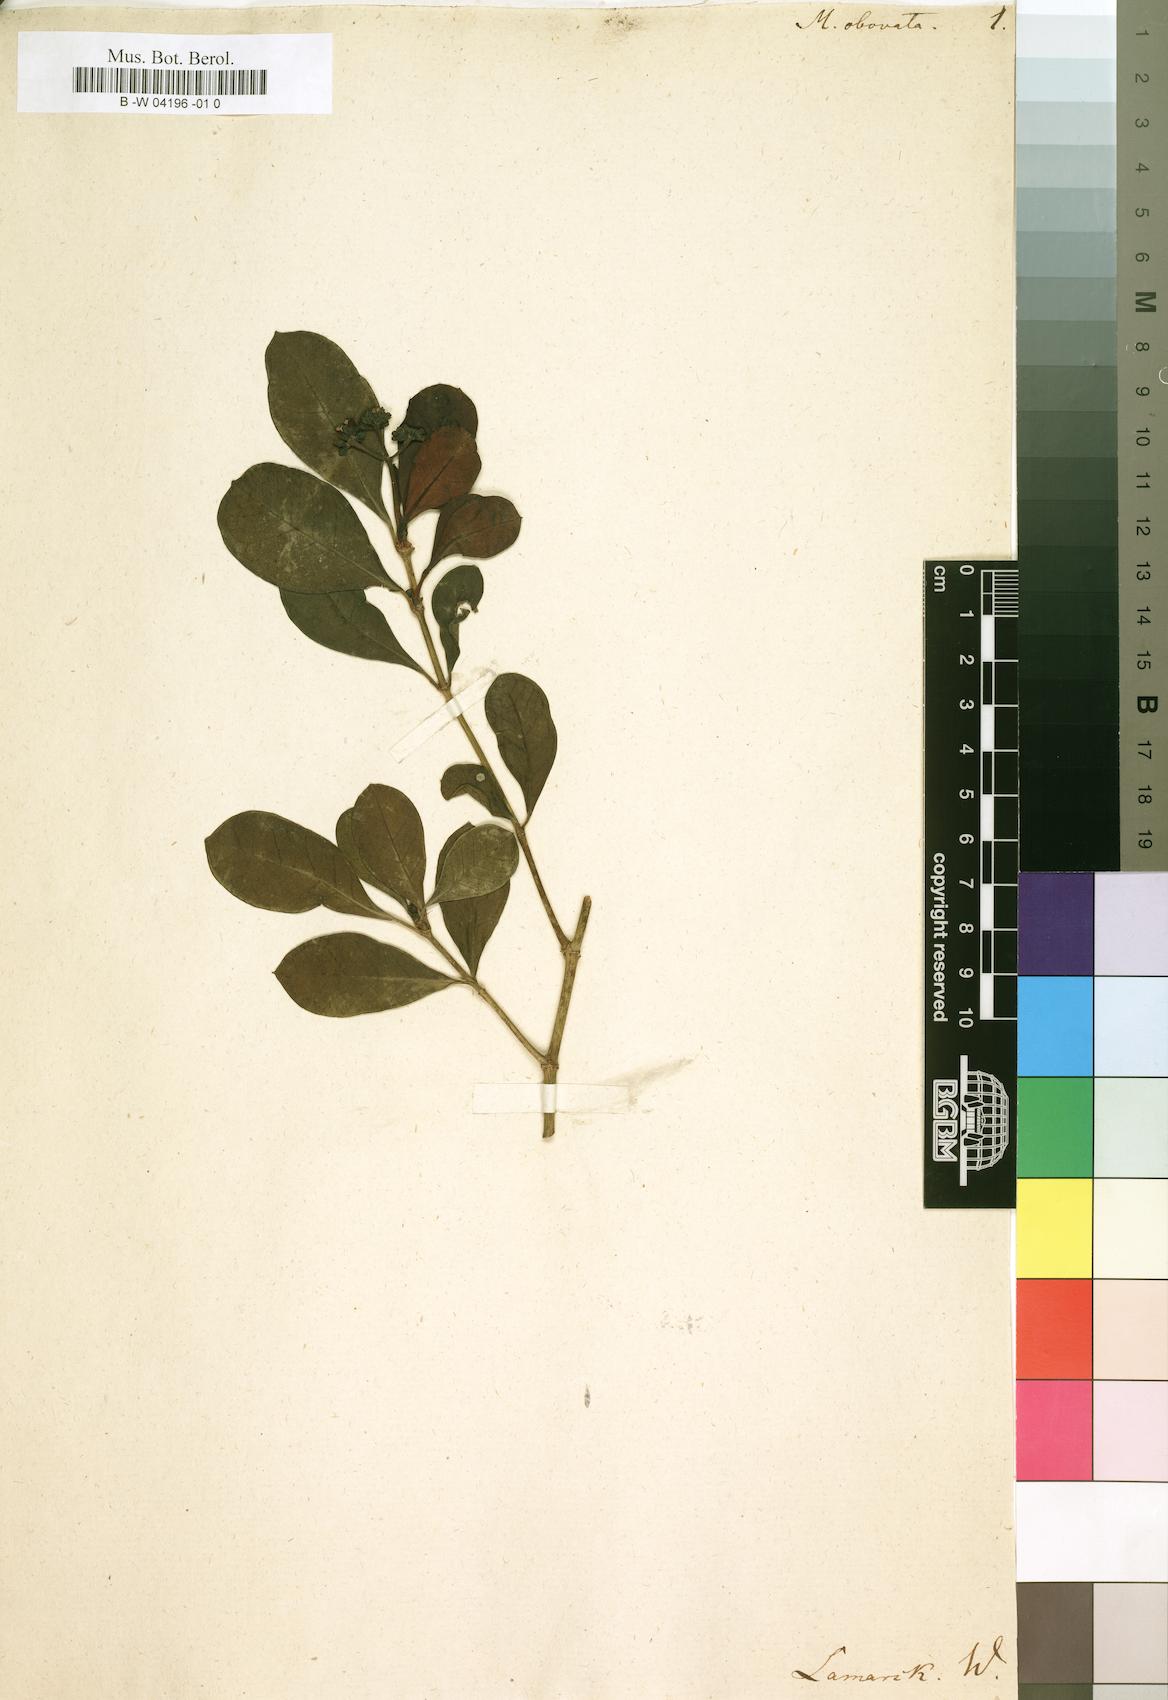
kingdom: Plantae
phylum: Tracheophyta
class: Magnoliopsida
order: Gentianales
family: Rubiaceae
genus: Morinda
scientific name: Morinda
